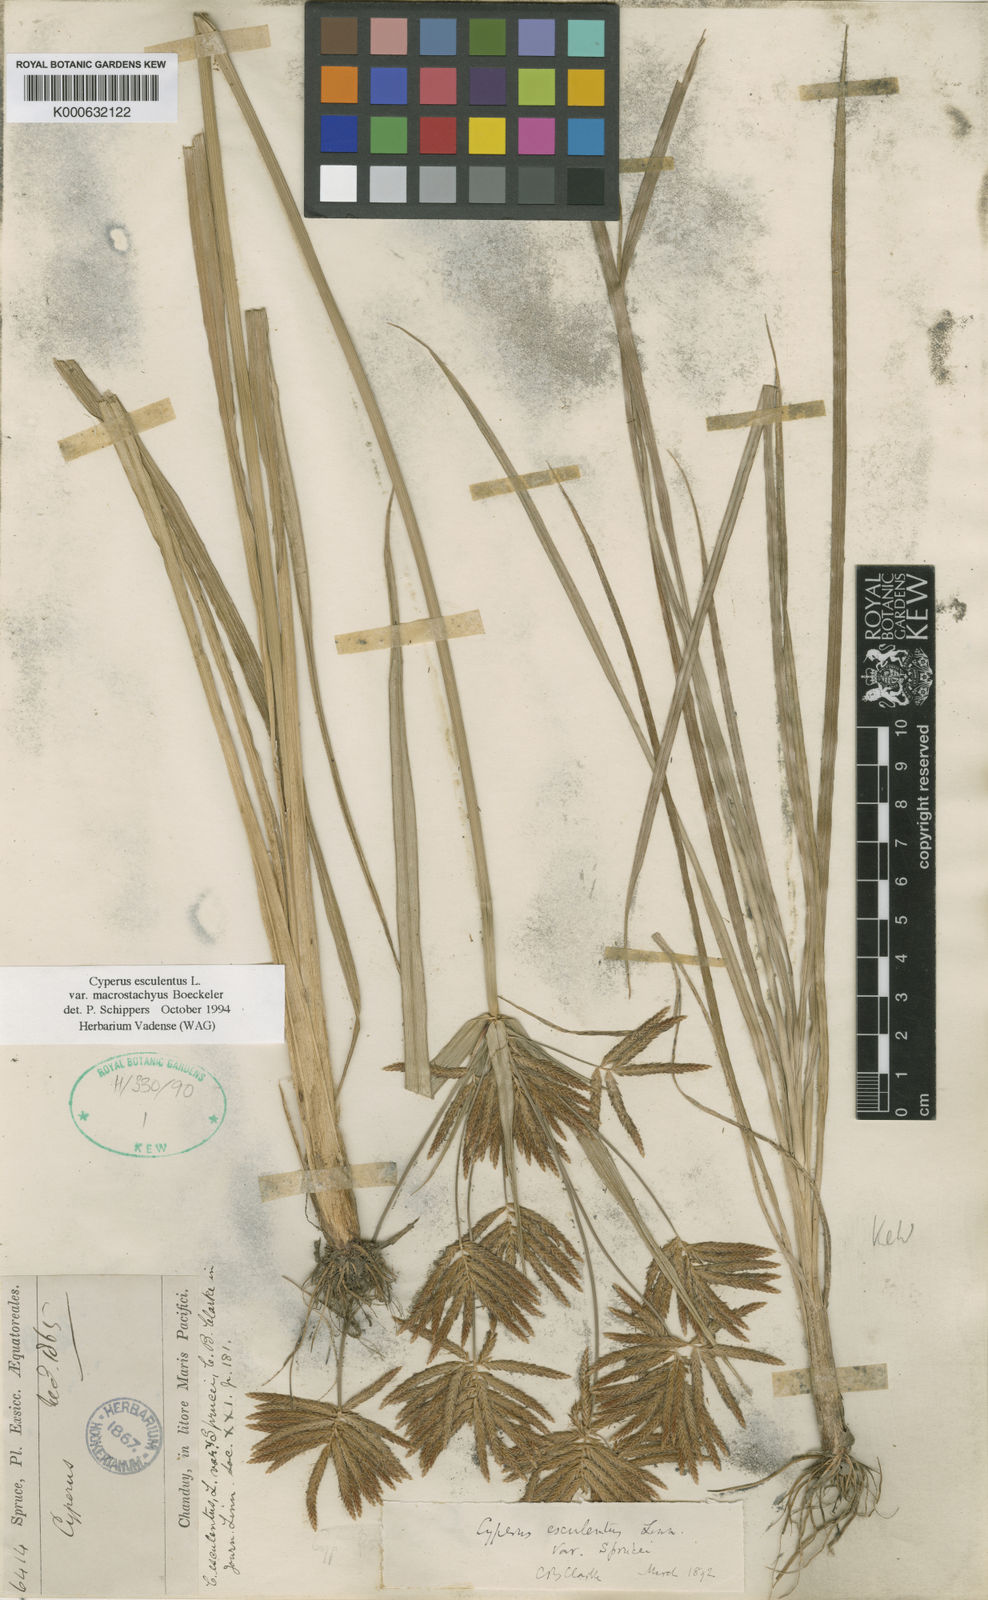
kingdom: Plantae
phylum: Tracheophyta
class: Liliopsida
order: Poales
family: Cyperaceae
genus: Cyperus
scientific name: Cyperus esculentus
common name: Yellow nutsedge
